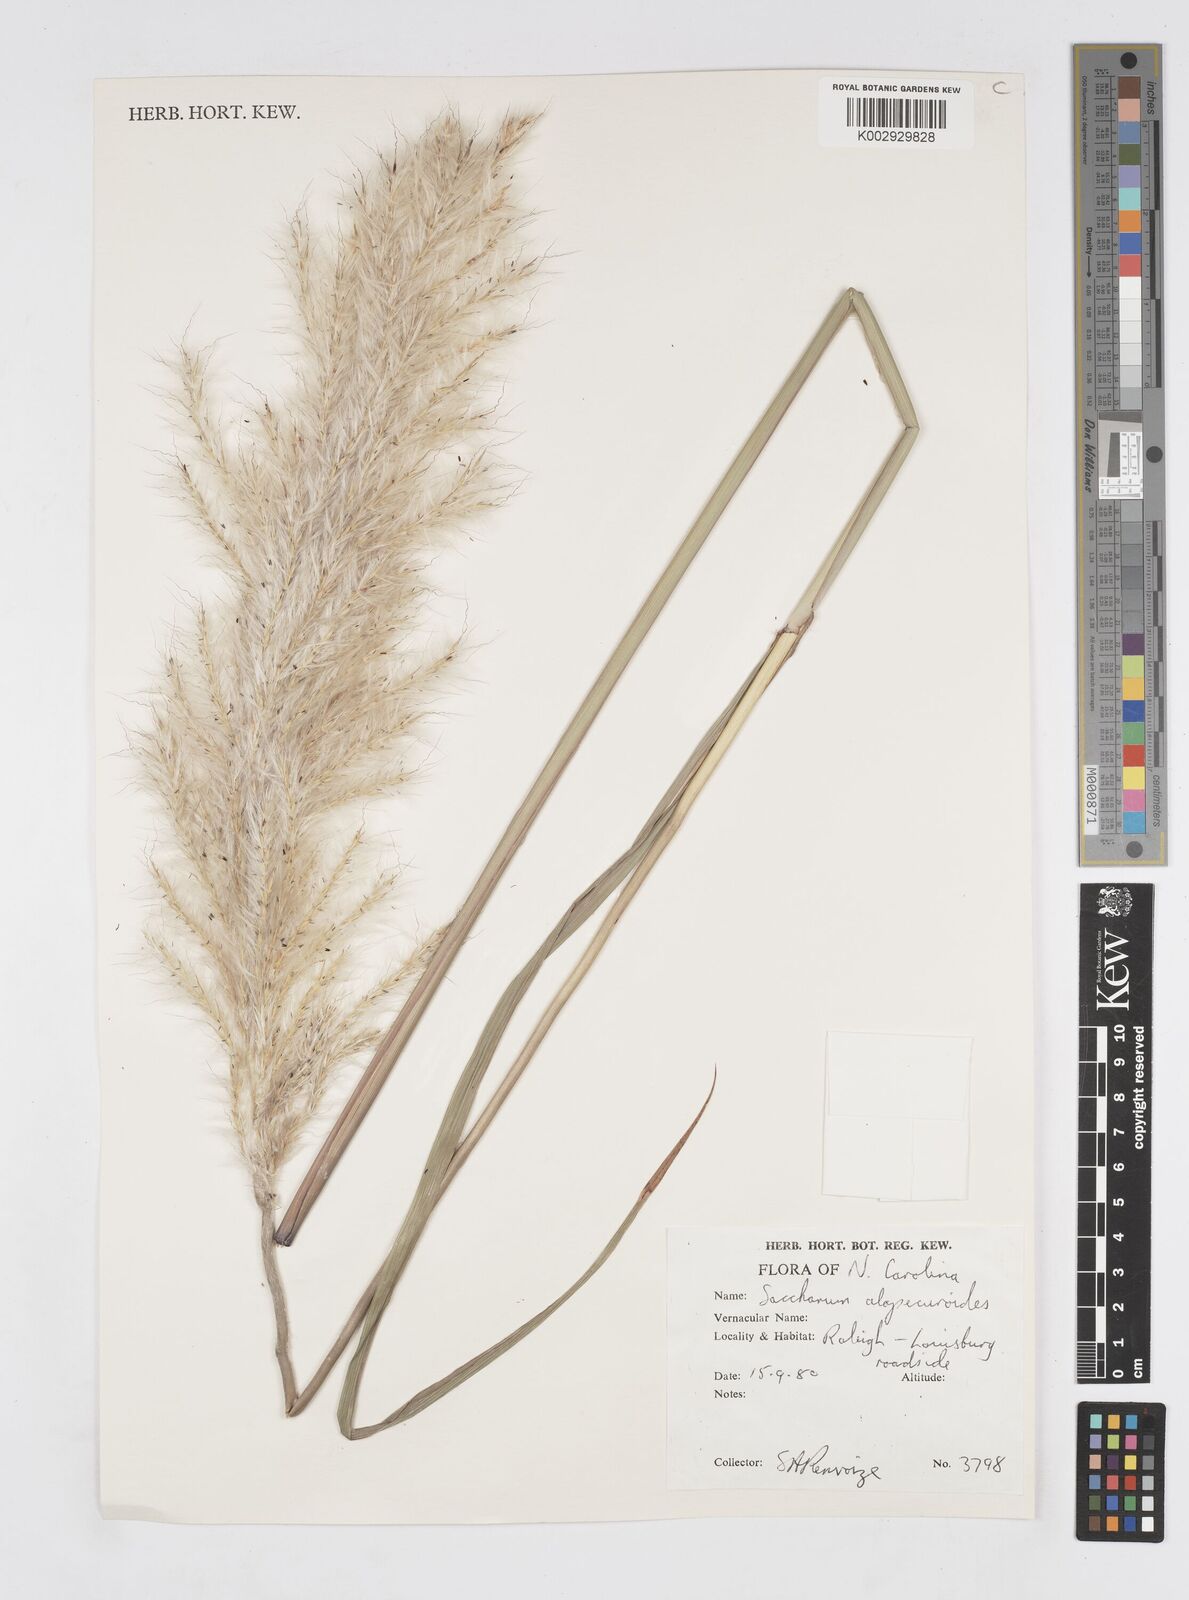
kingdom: Plantae
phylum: Tracheophyta
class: Liliopsida
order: Poales
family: Poaceae
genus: Erianthus
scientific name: Erianthus alopecuroides
